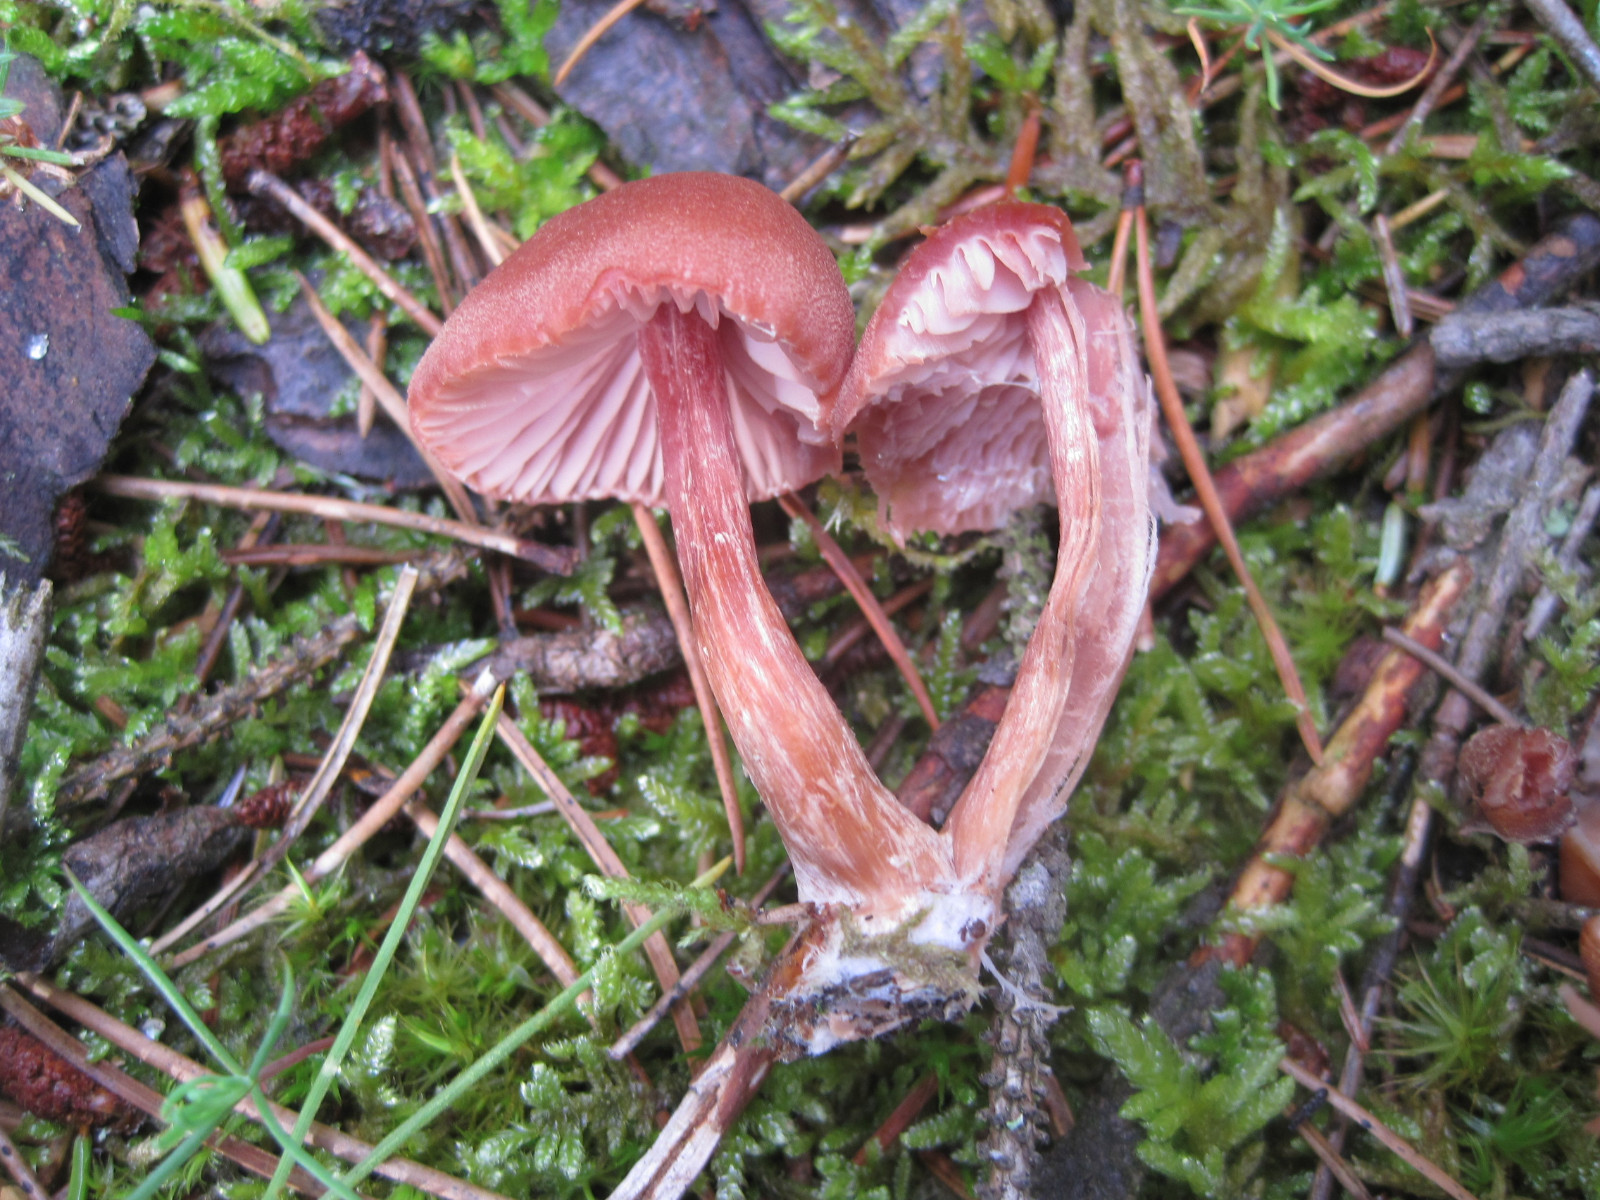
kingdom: Fungi
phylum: Basidiomycota
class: Agaricomycetes
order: Agaricales
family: Hydnangiaceae
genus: Laccaria
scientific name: Laccaria bicolor
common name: tvefarvet ametysthat
